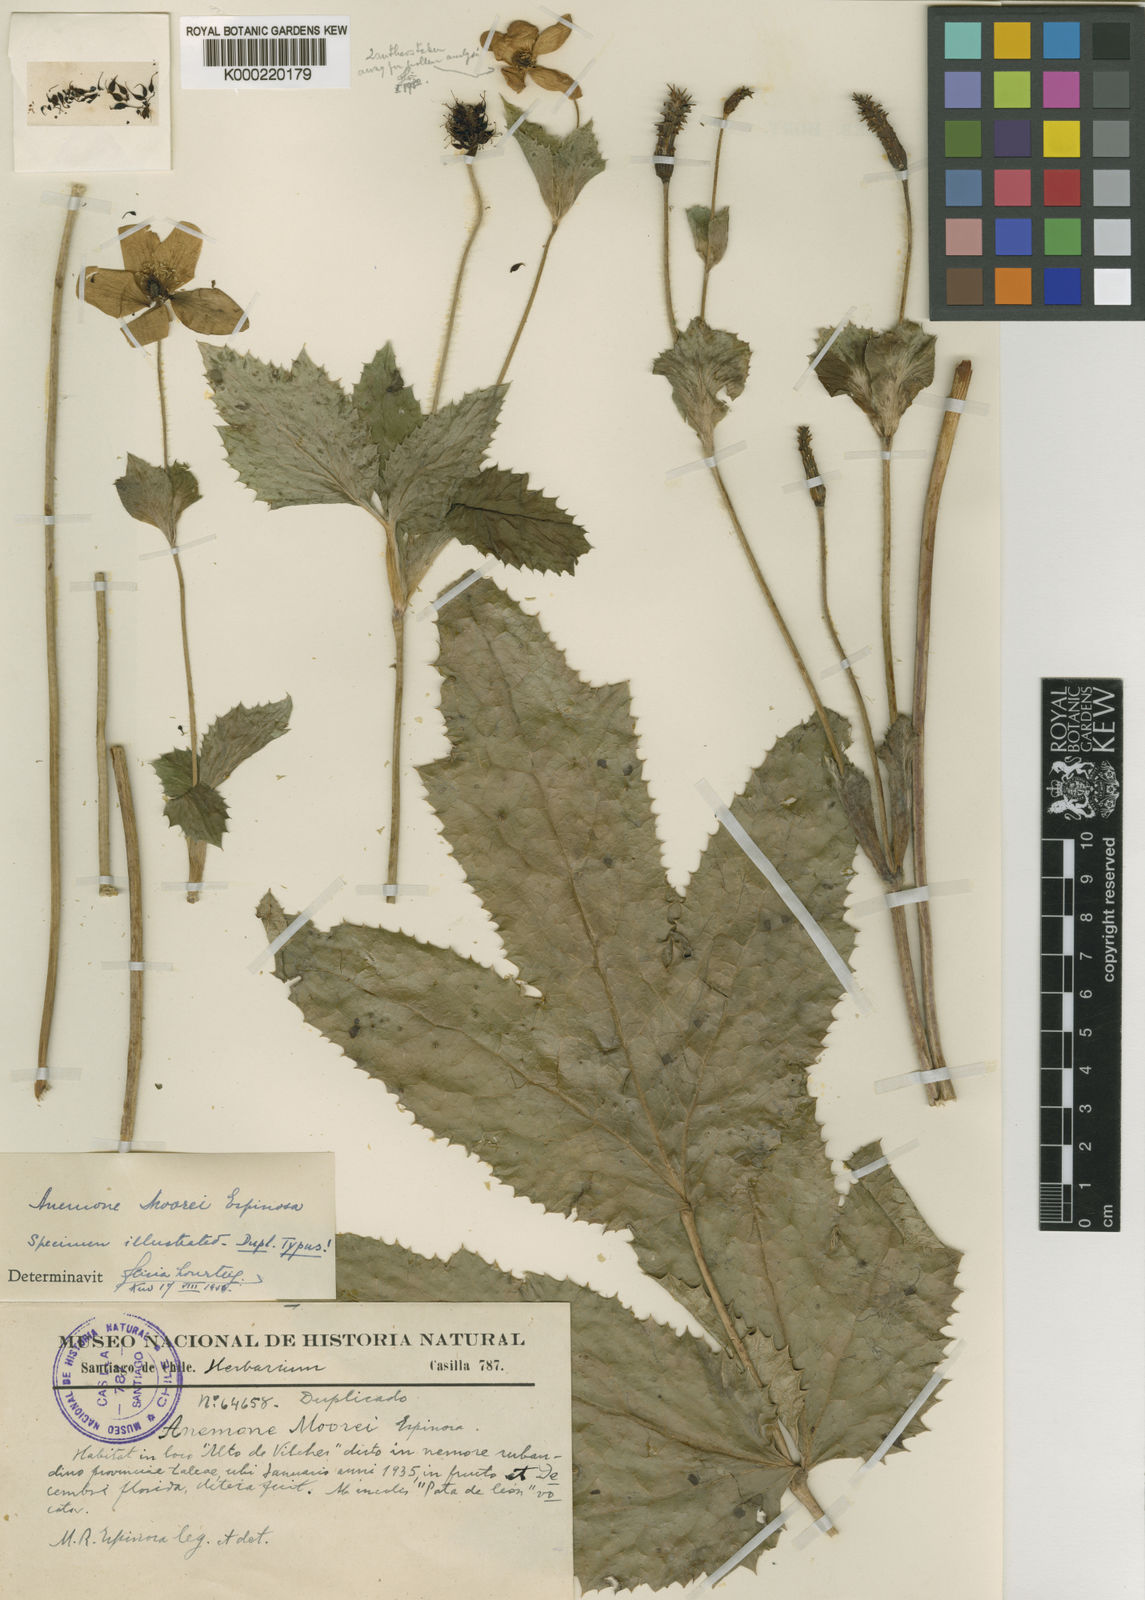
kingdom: Plantae
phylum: Tracheophyta
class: Magnoliopsida
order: Ranunculales
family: Ranunculaceae
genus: Knowltonia
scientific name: Knowltonia moorei
